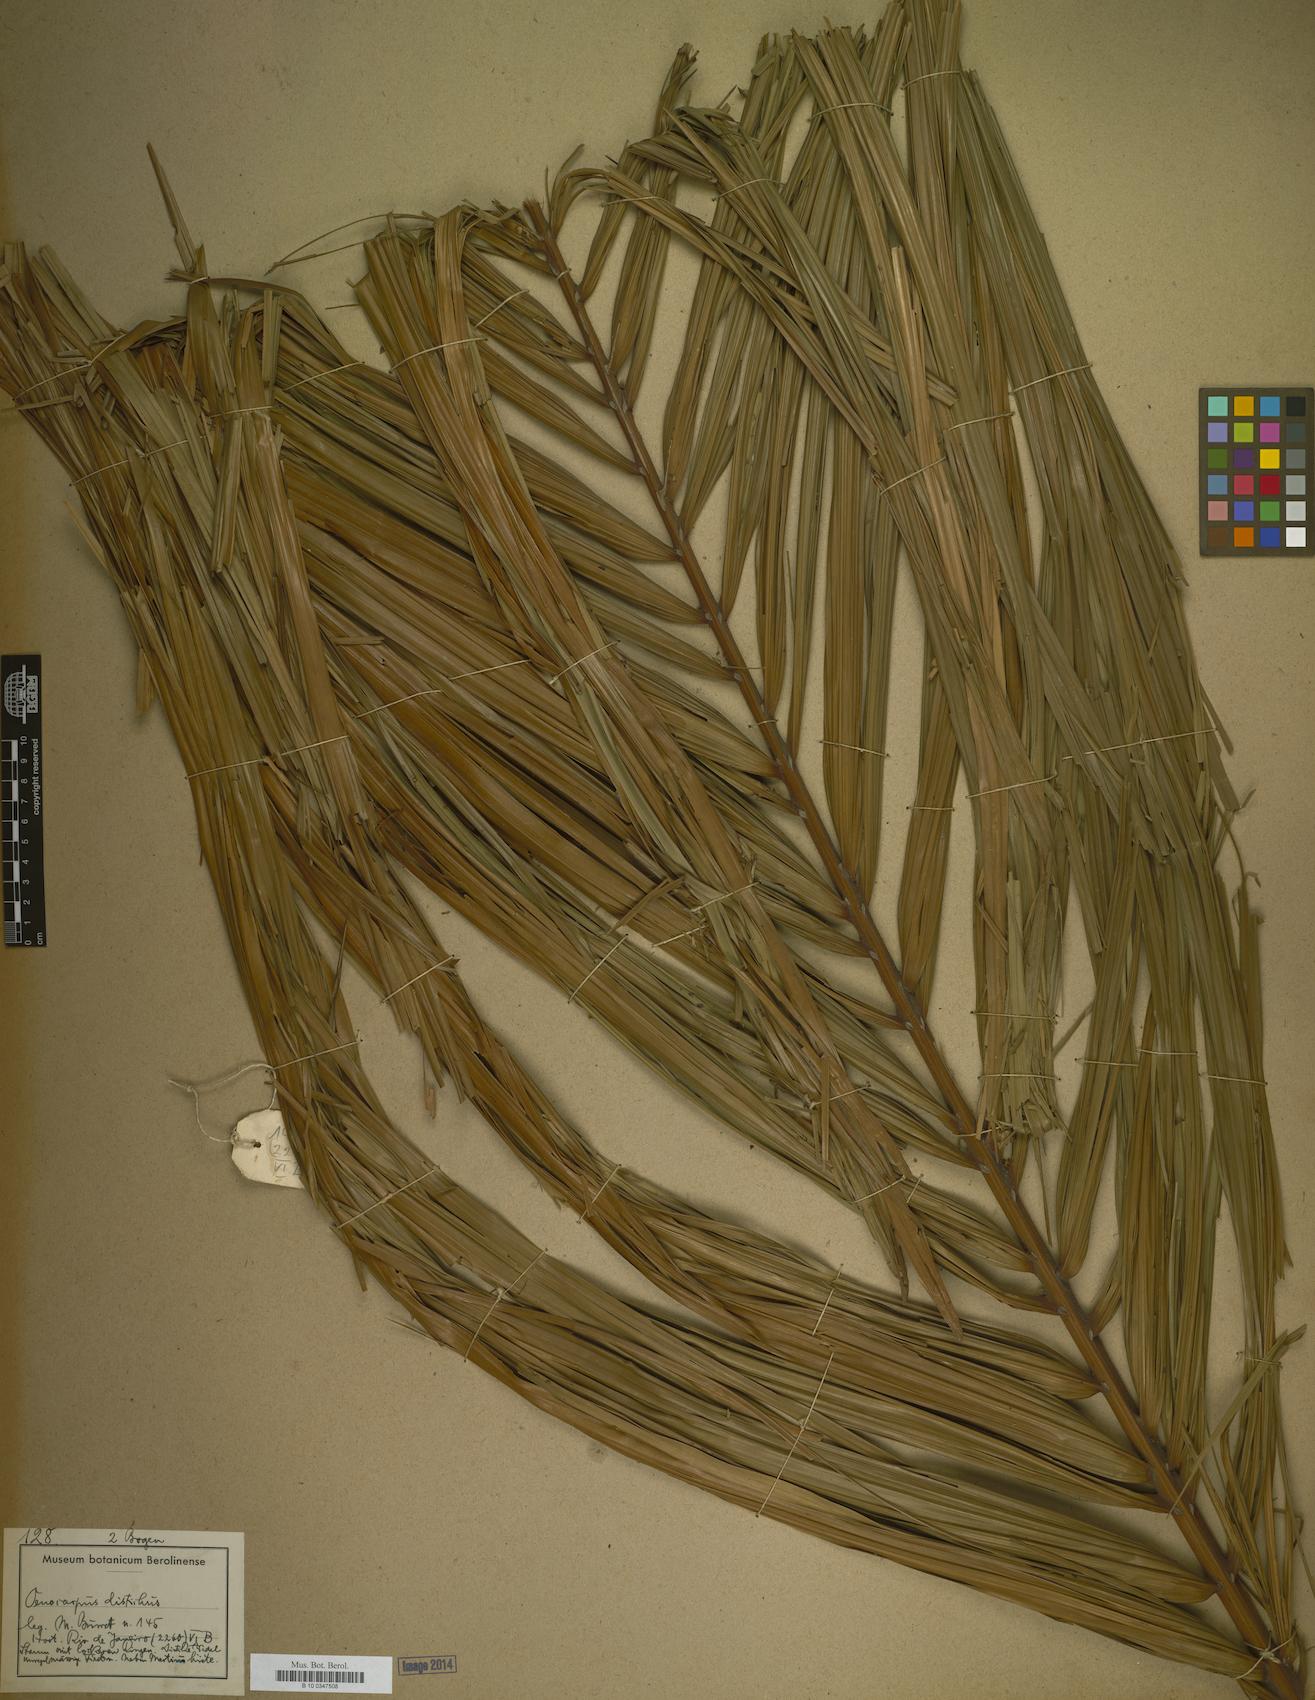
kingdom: Plantae
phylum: Tracheophyta
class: Liliopsida
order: Arecales
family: Arecaceae
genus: Oenocarpus
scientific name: Oenocarpus distichus
